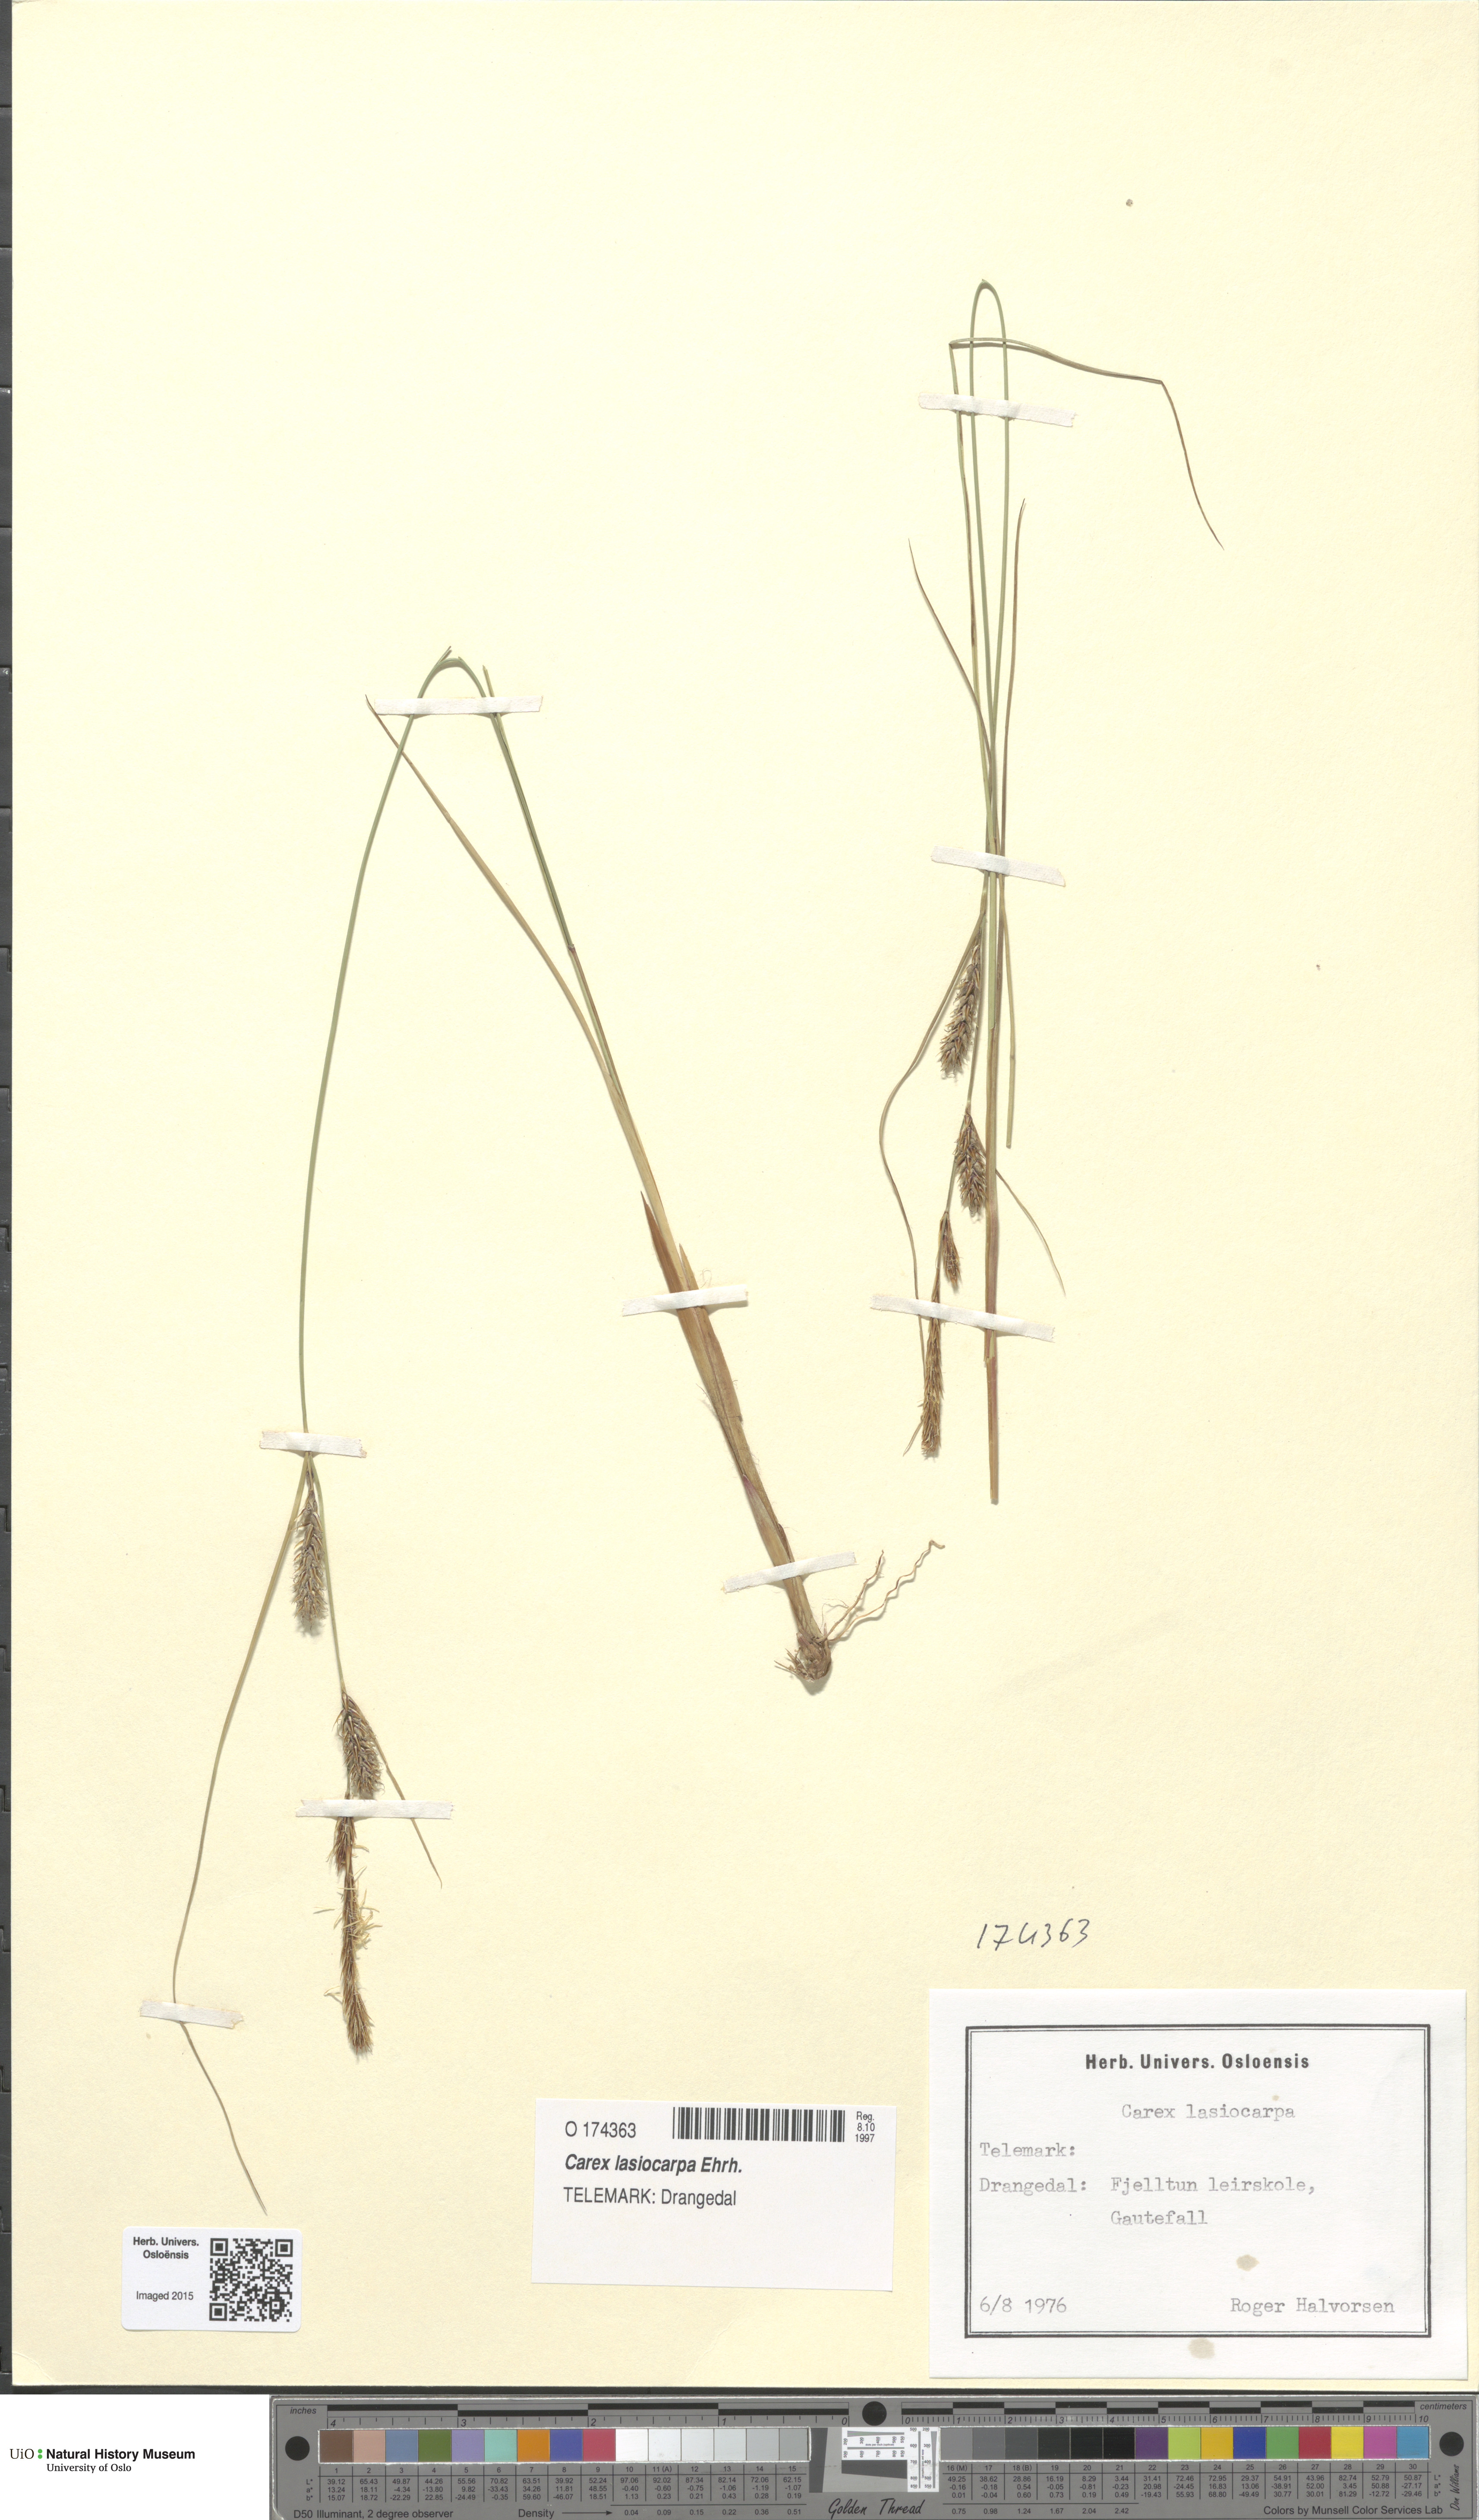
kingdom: Plantae
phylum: Tracheophyta
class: Liliopsida
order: Poales
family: Cyperaceae
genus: Carex
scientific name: Carex lasiocarpa
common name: Slender sedge
